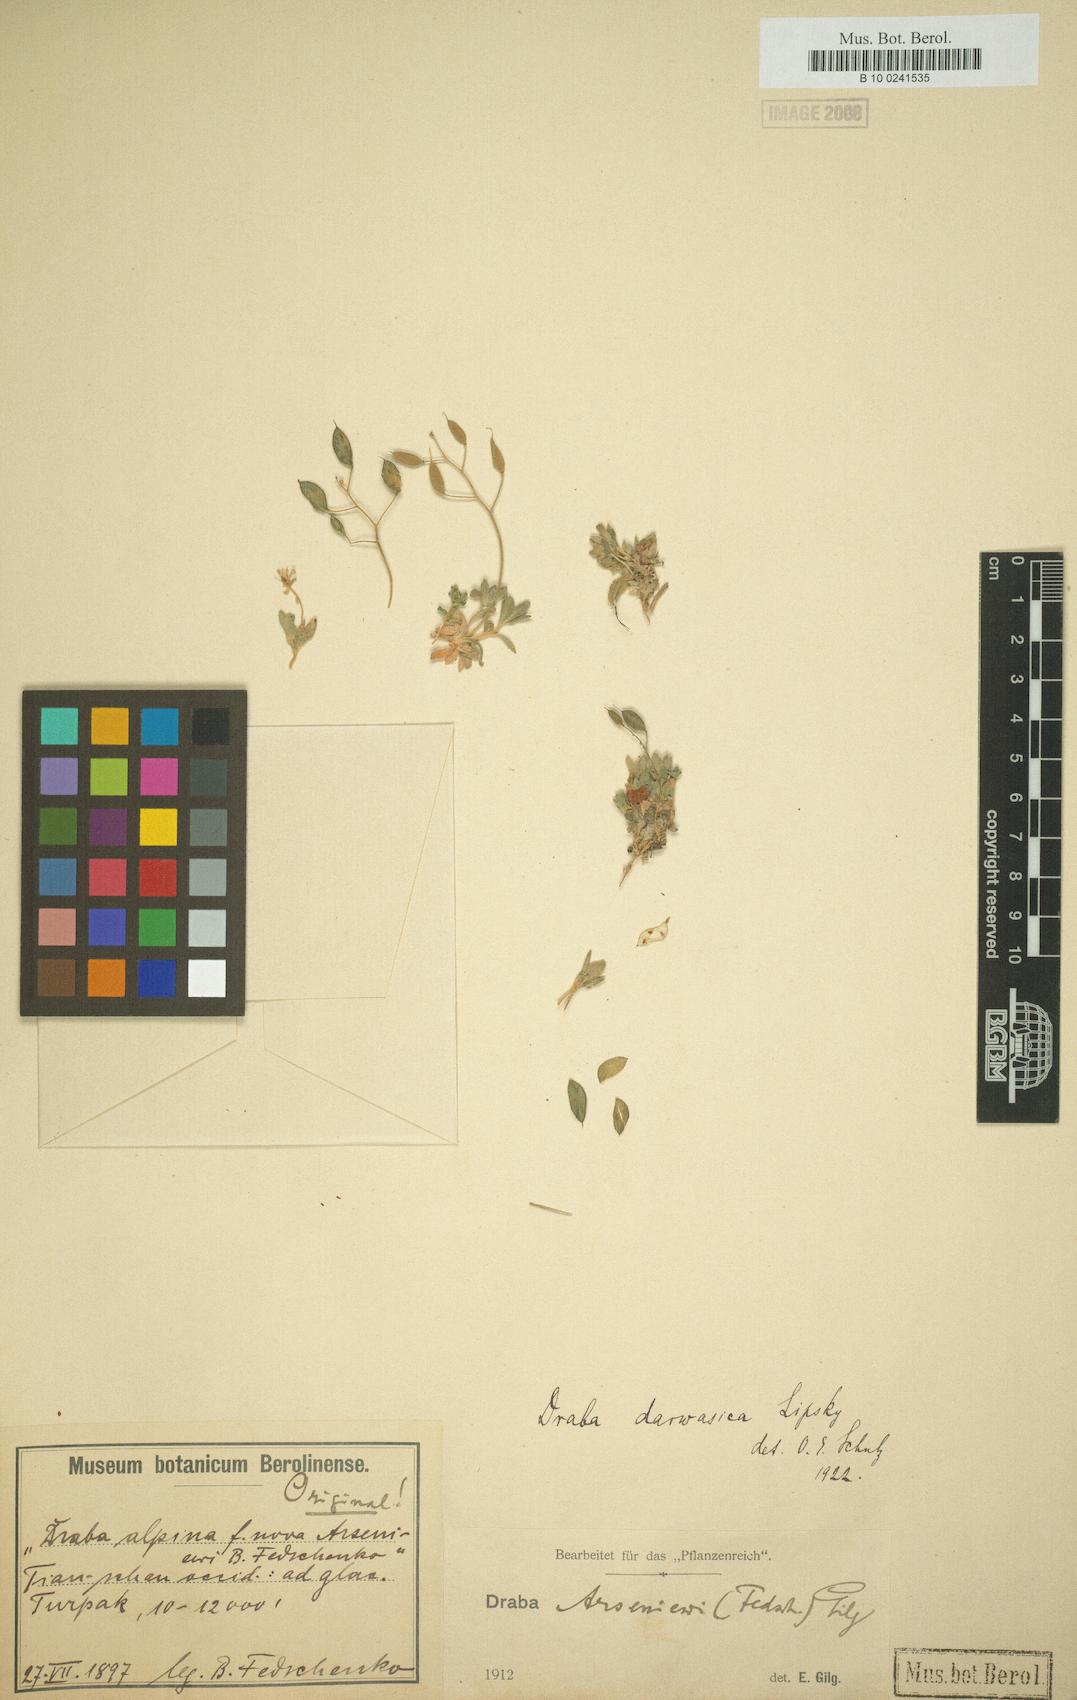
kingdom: Plantae
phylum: Tracheophyta
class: Magnoliopsida
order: Brassicales
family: Brassicaceae
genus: Draba
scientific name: Draba darwasica
